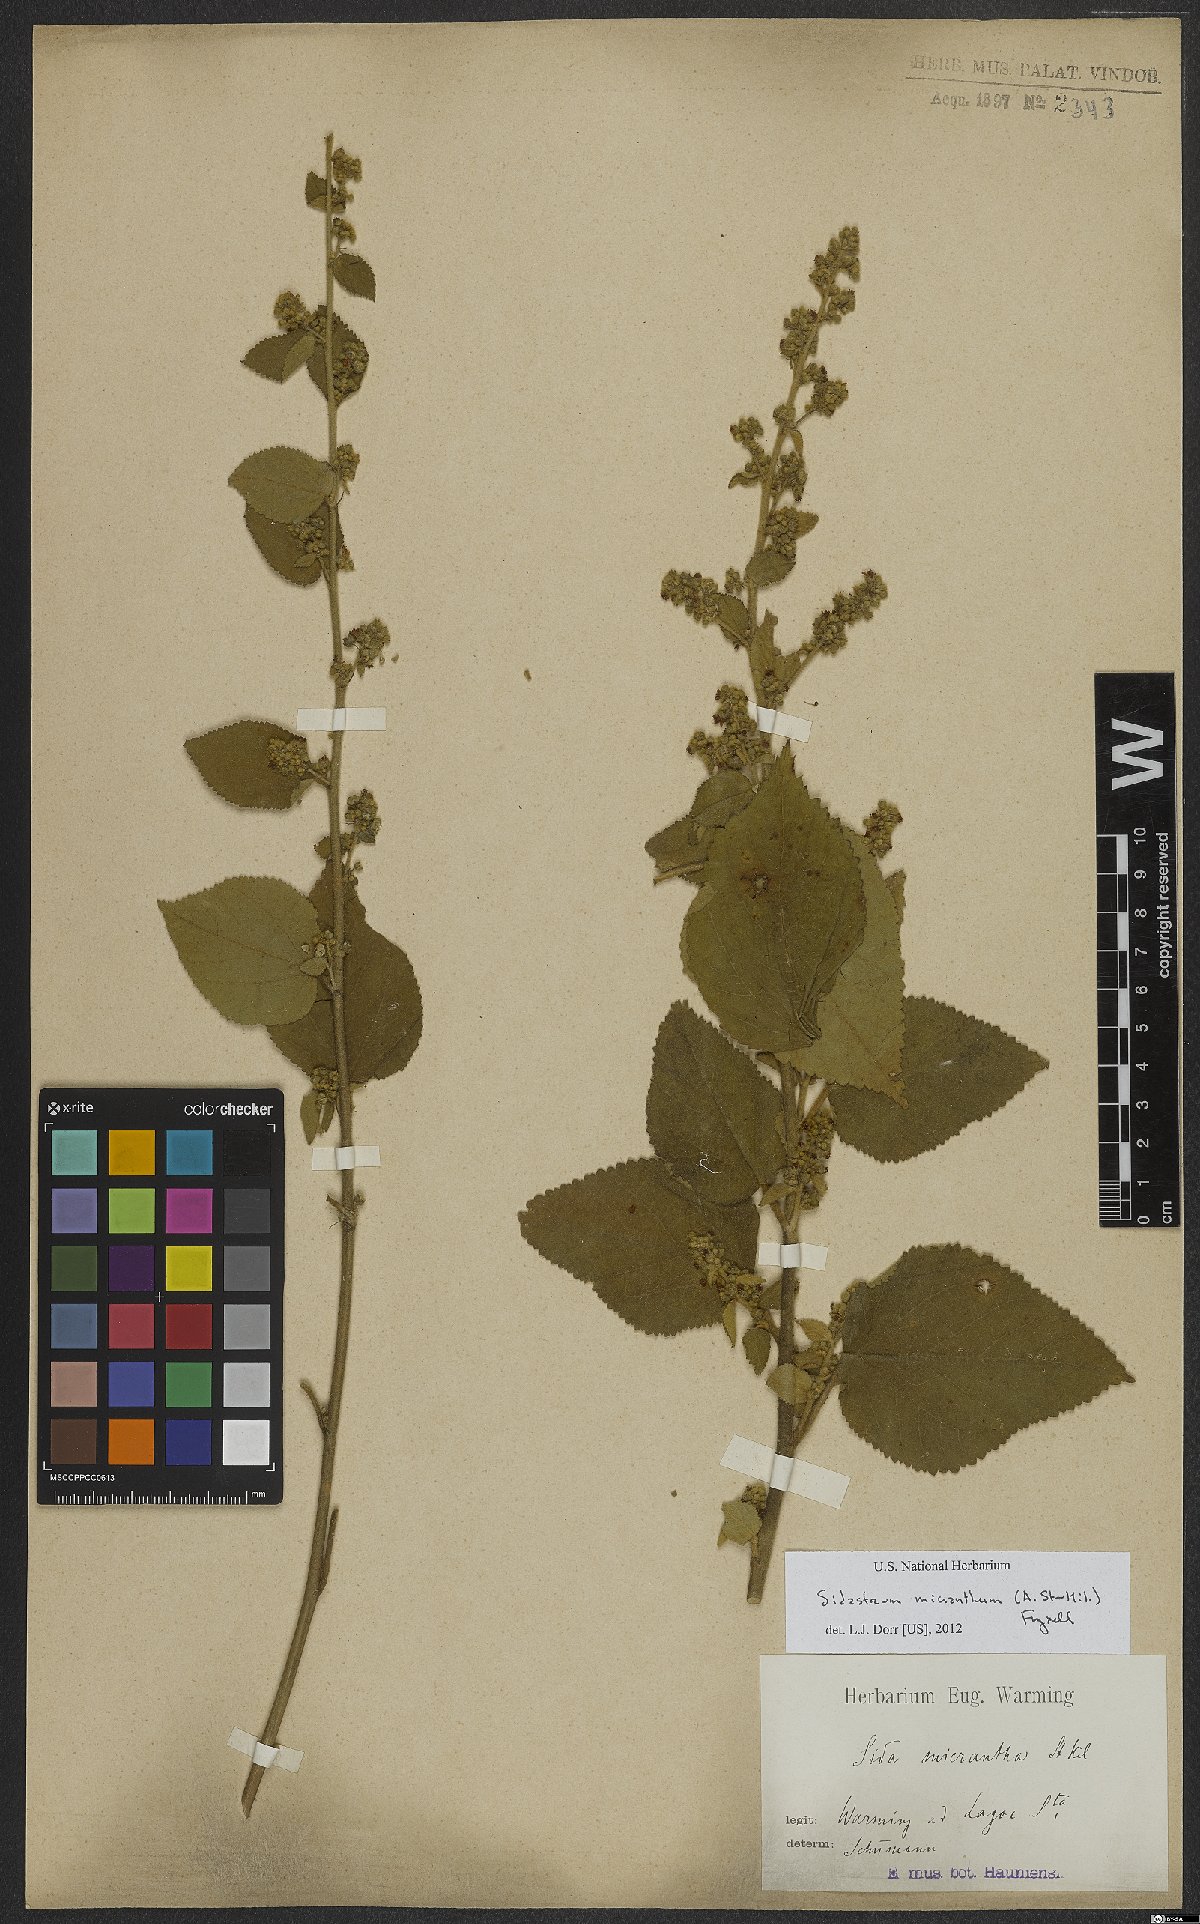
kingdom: Plantae
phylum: Tracheophyta
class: Magnoliopsida
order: Malvales
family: Malvaceae
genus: Sidastrum
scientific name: Sidastrum micranthum
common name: Dainty sandmallow
